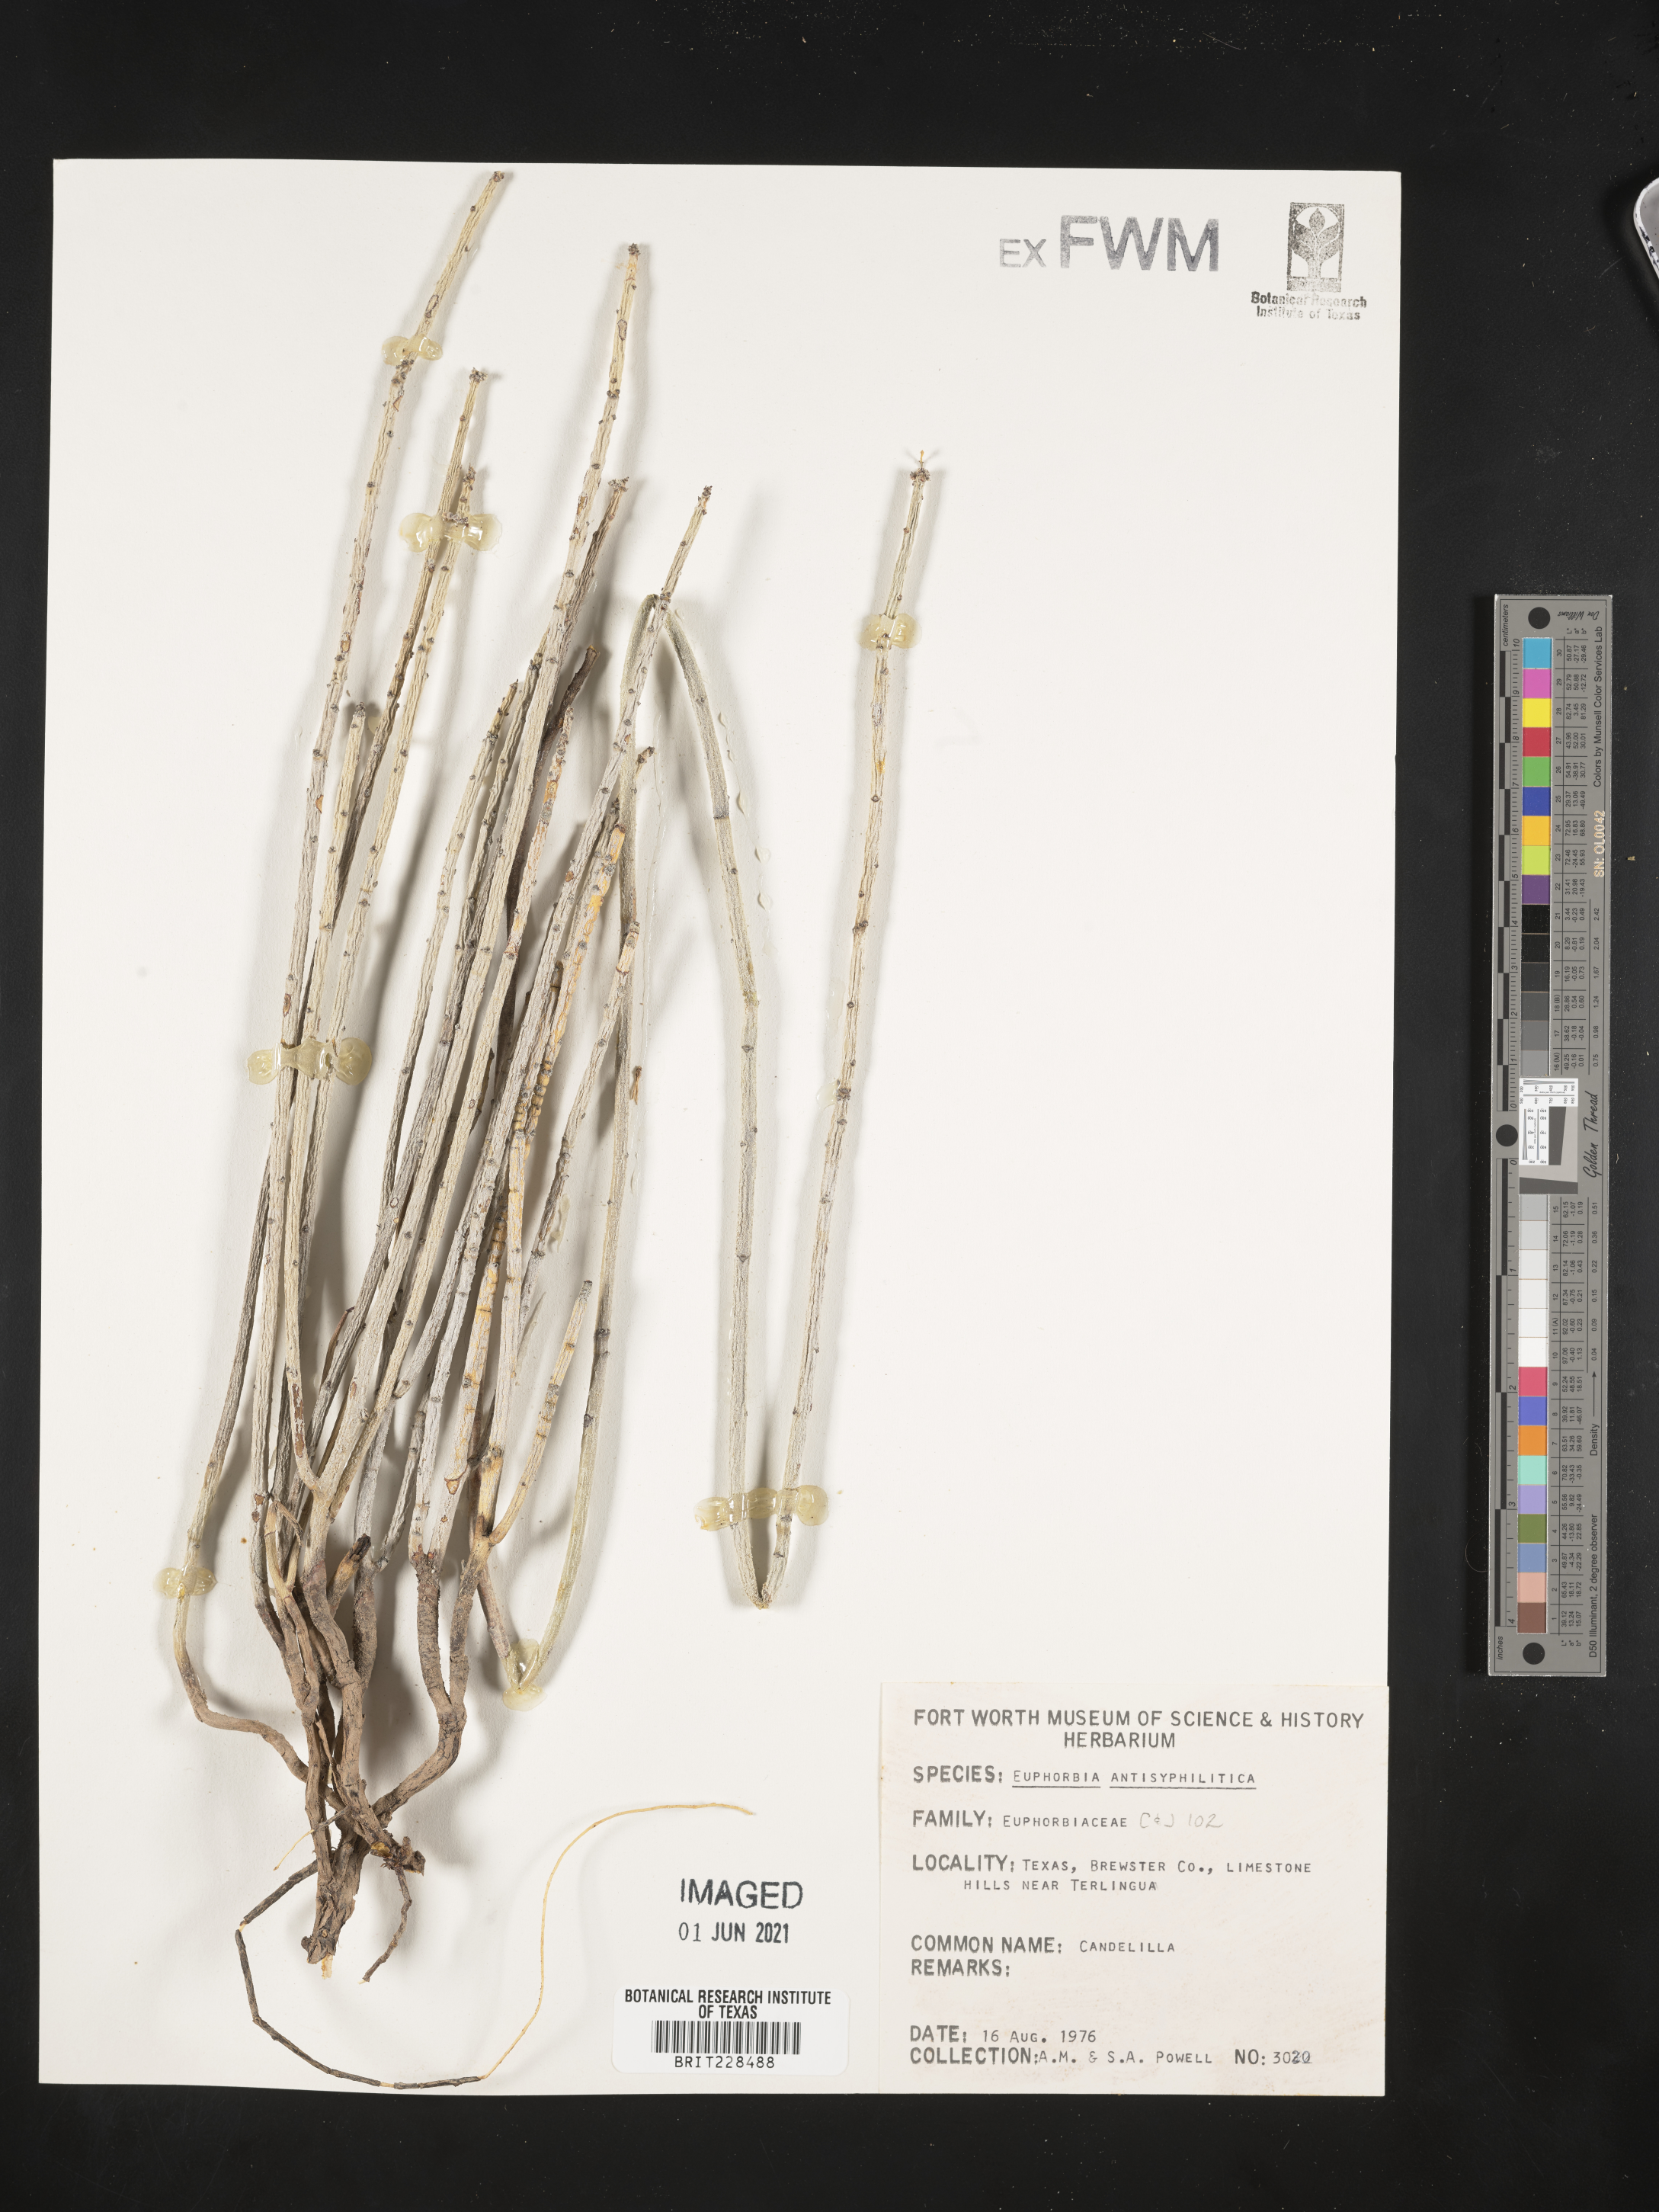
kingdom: Plantae
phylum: Tracheophyta
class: Magnoliopsida
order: Malpighiales
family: Euphorbiaceae
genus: Euphorbia
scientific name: Euphorbia antisyphilitica
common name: Candelilla
